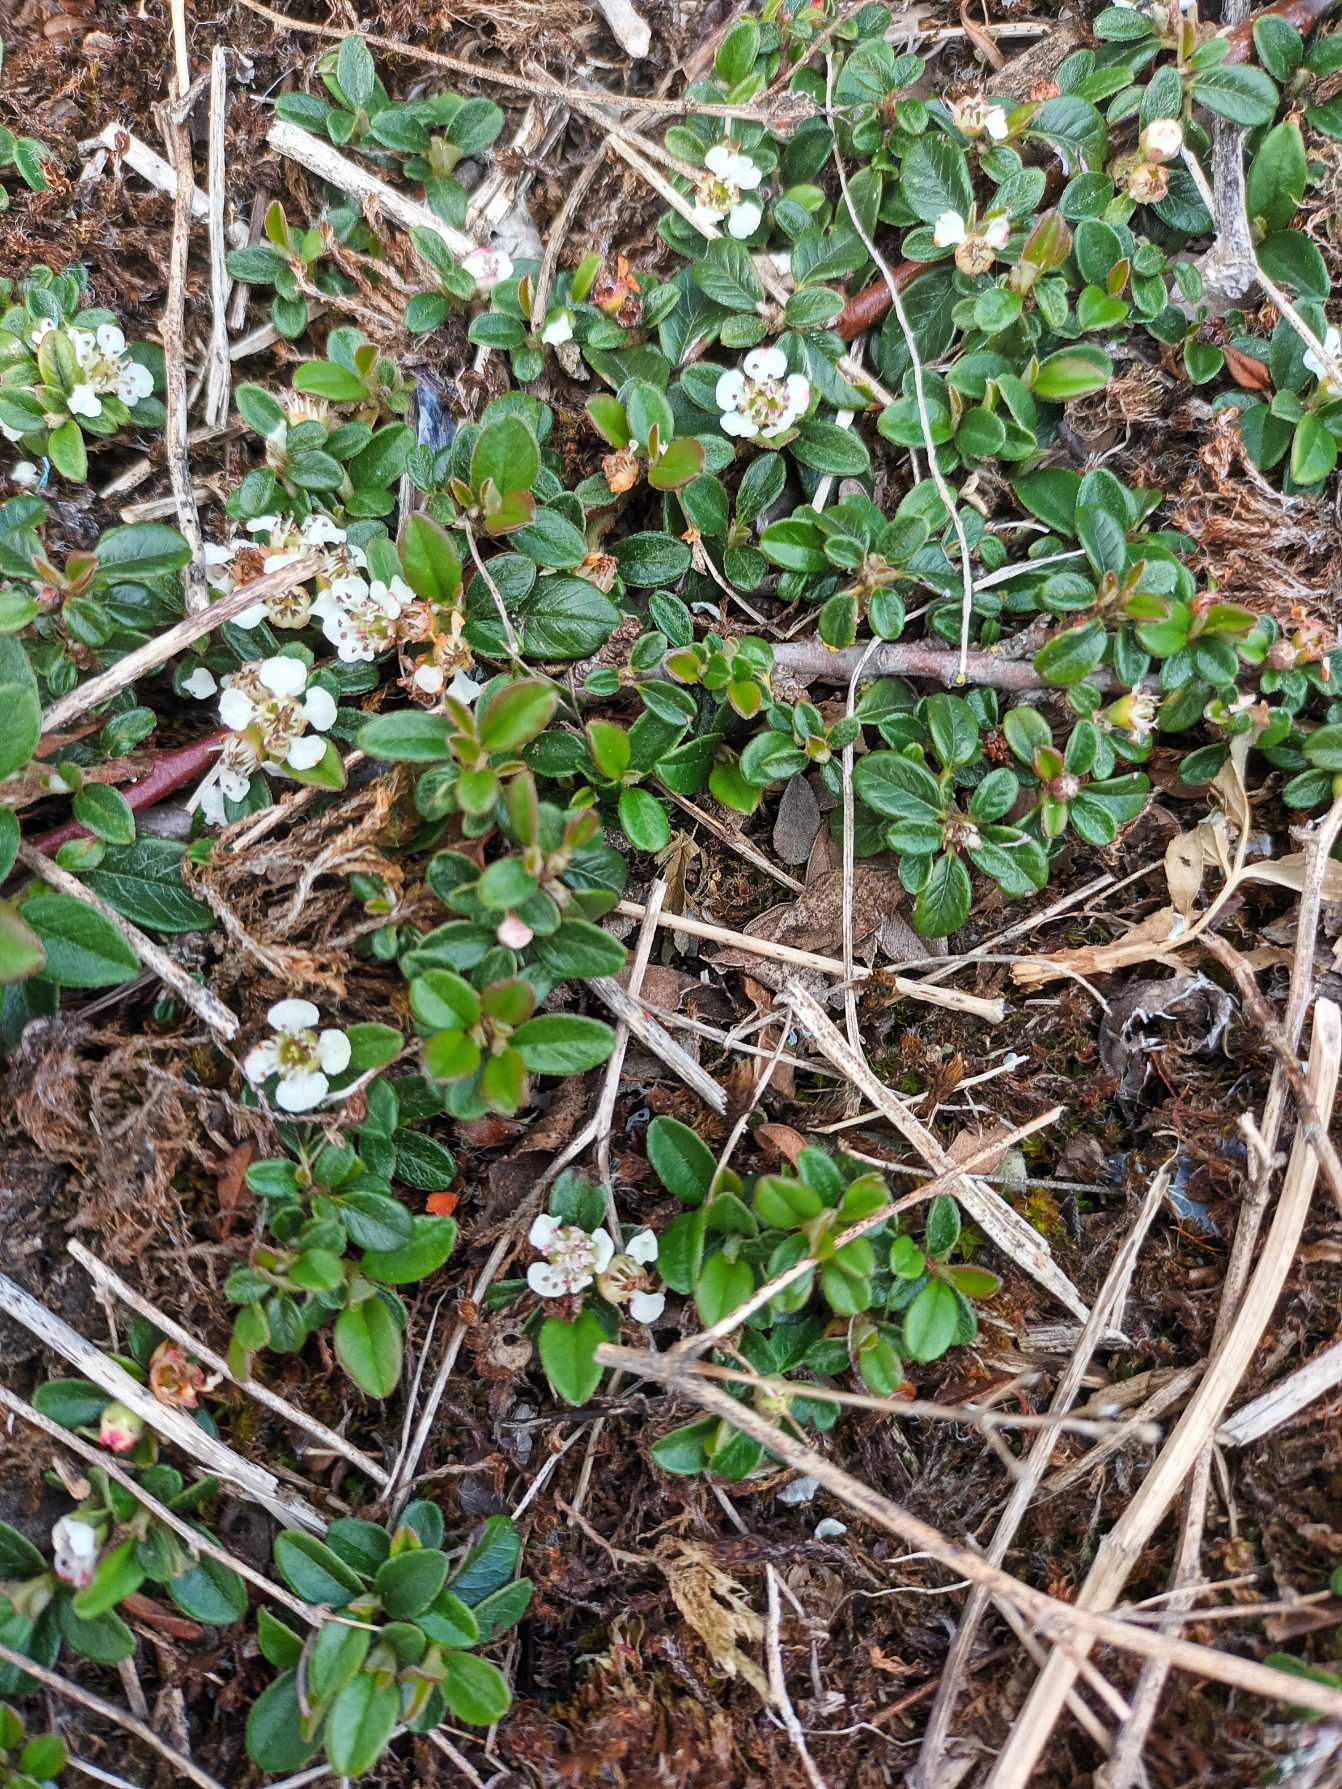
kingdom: Plantae
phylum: Tracheophyta
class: Magnoliopsida
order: Rosales
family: Rosaceae
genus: Cotoneaster
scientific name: Cotoneaster microphyllus
